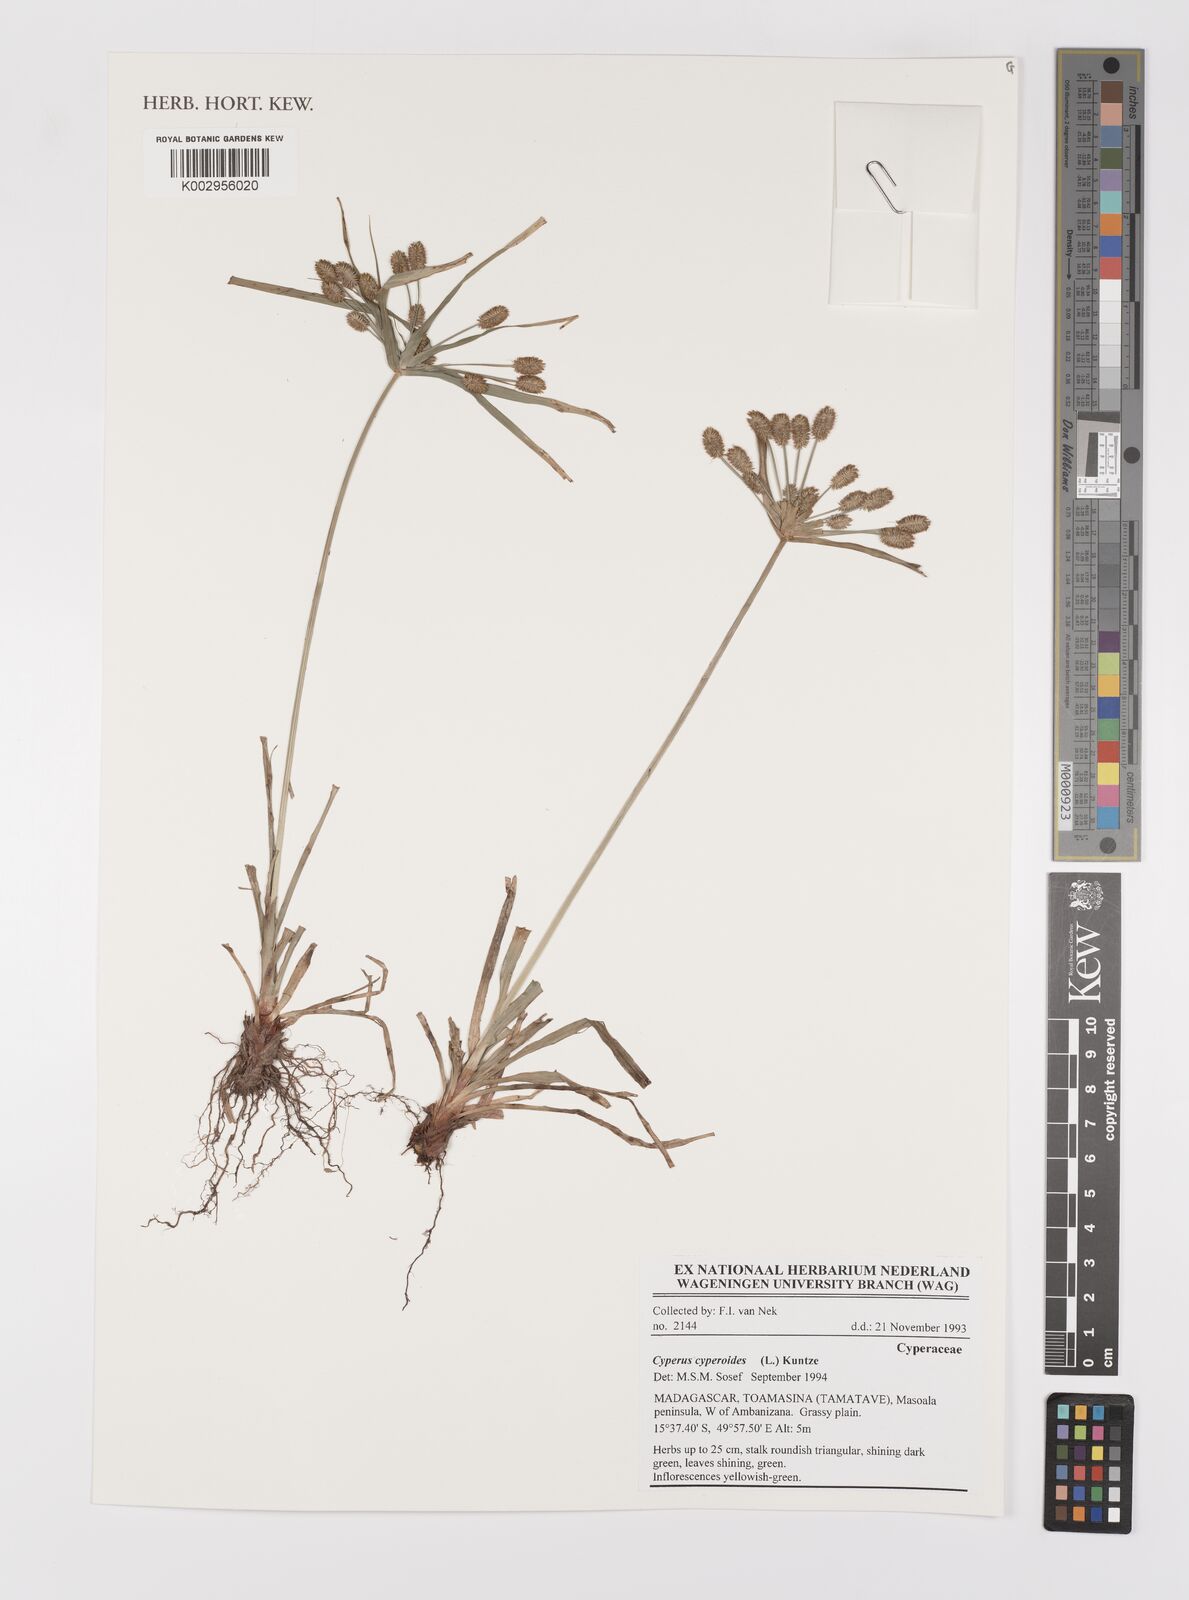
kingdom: Plantae
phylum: Tracheophyta
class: Liliopsida
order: Poales
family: Cyperaceae
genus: Cyperus
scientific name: Cyperus cyperoides
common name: Pacific island flat sedge
